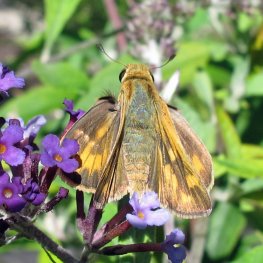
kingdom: Animalia
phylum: Arthropoda
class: Insecta
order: Lepidoptera
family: Hesperiidae
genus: Polites
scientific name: Polites coras
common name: Peck's Skipper
